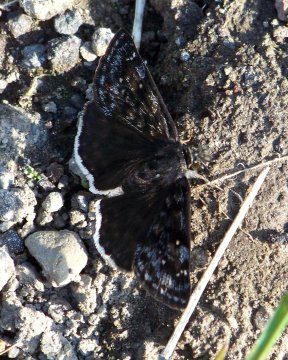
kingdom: Animalia
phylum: Arthropoda
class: Insecta
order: Lepidoptera
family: Hesperiidae
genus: Erynnis
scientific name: Erynnis pacuvius
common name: Pacuvius Duskywing
